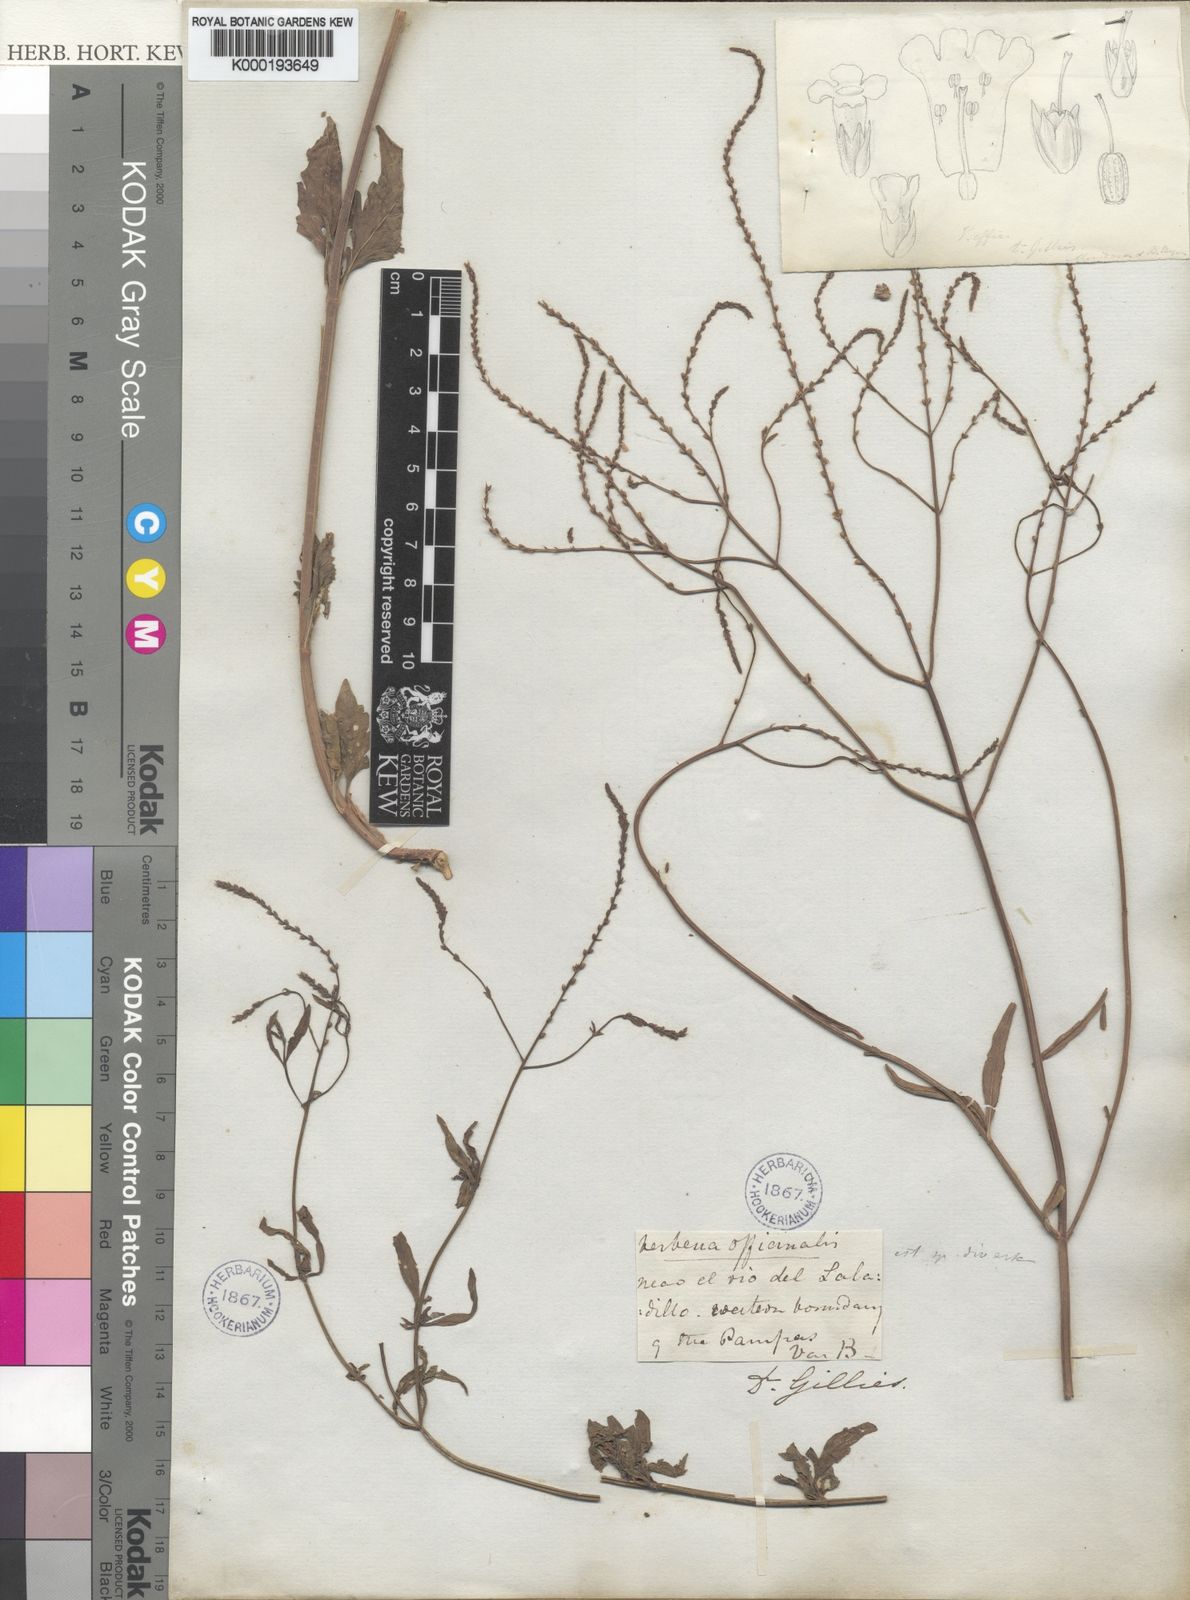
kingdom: Plantae
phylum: Tracheophyta
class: Magnoliopsida
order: Lamiales
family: Verbenaceae
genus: Verbena
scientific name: Verbena officinalis
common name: Vervain
